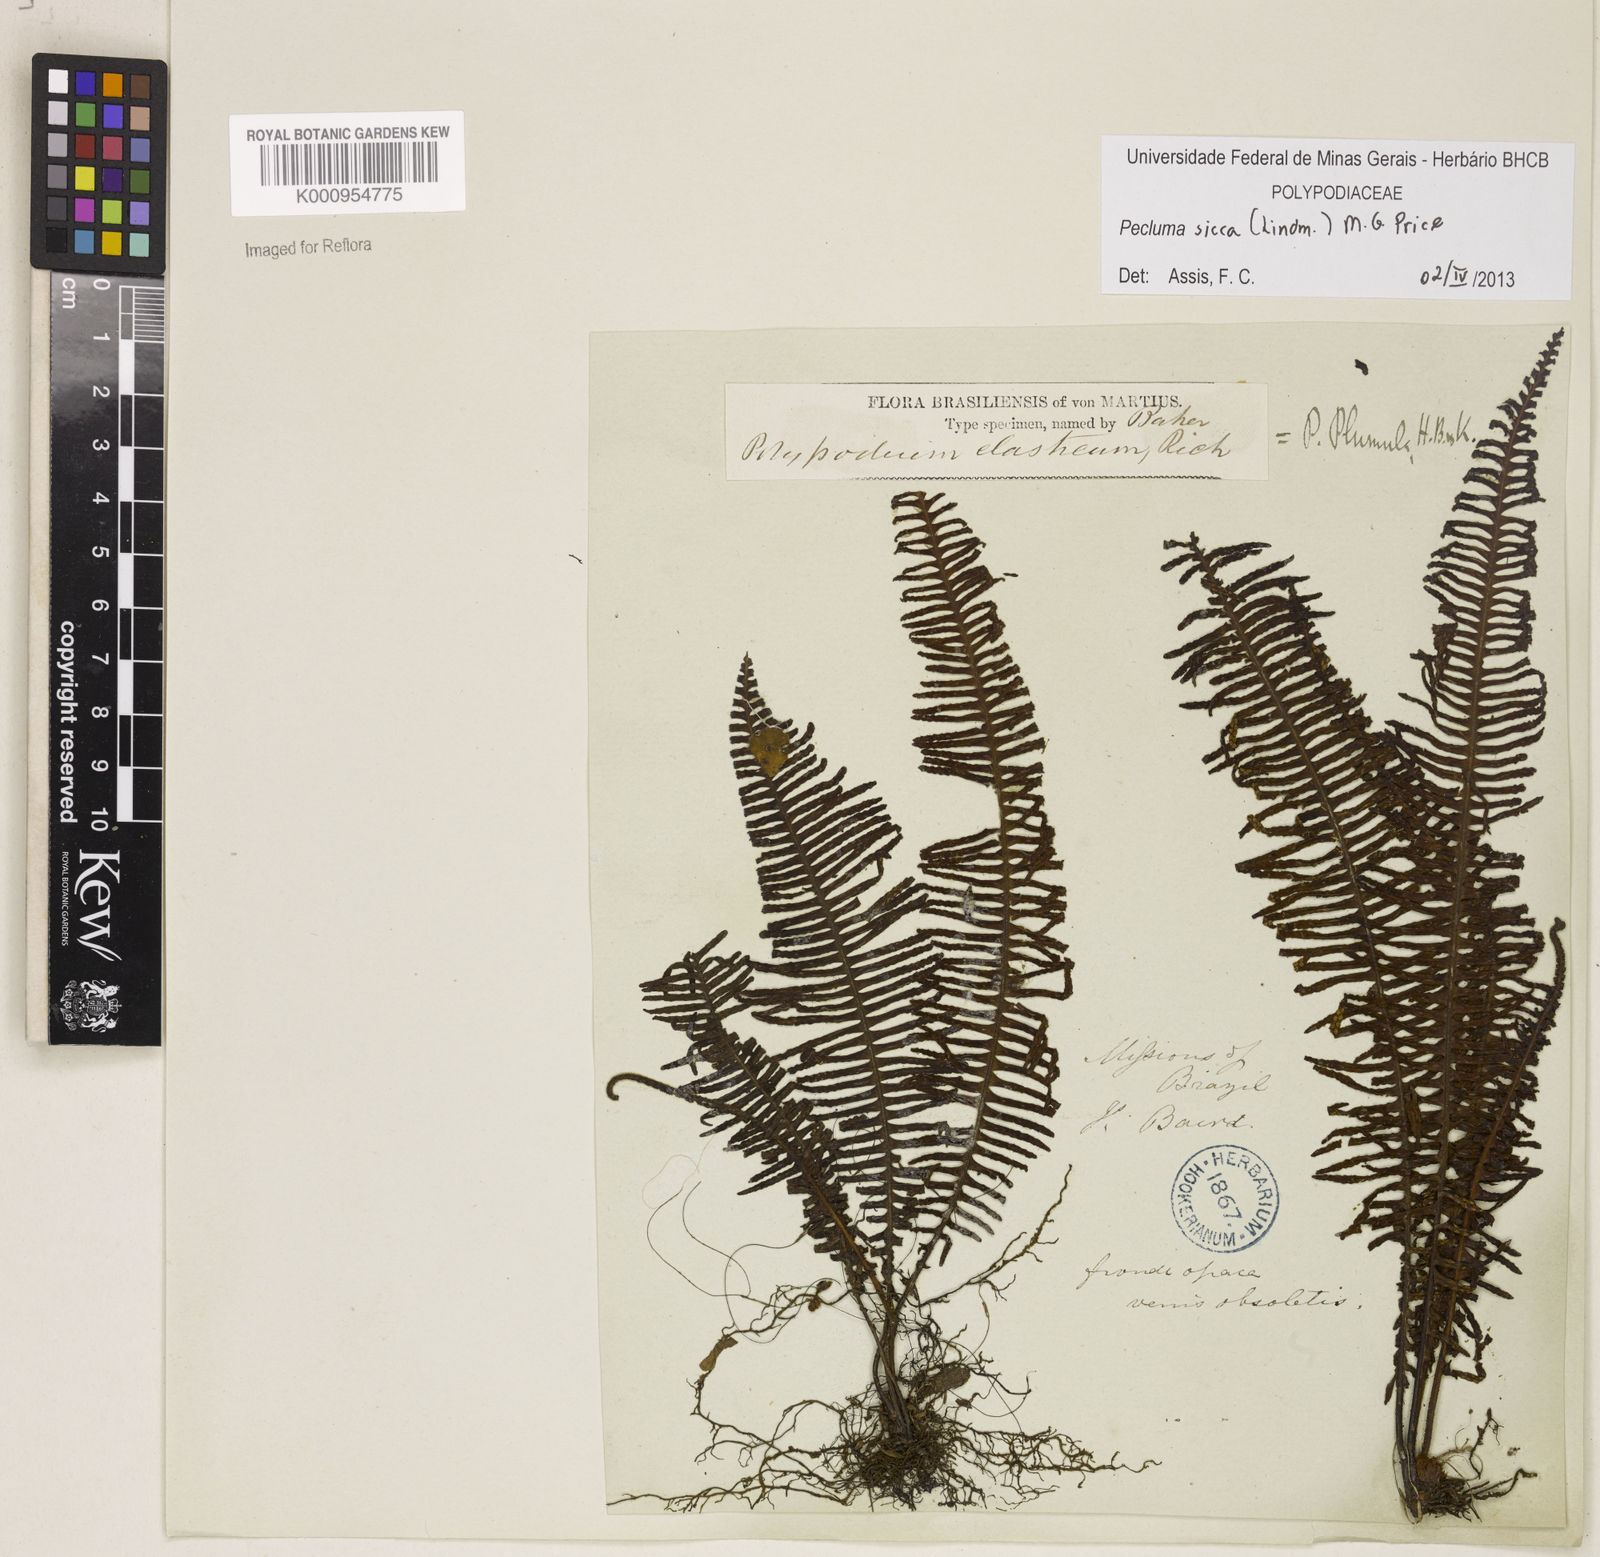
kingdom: Plantae
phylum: Tracheophyta
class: Polypodiopsida
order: Polypodiales
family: Polypodiaceae
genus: Pecluma
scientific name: Pecluma sicca
